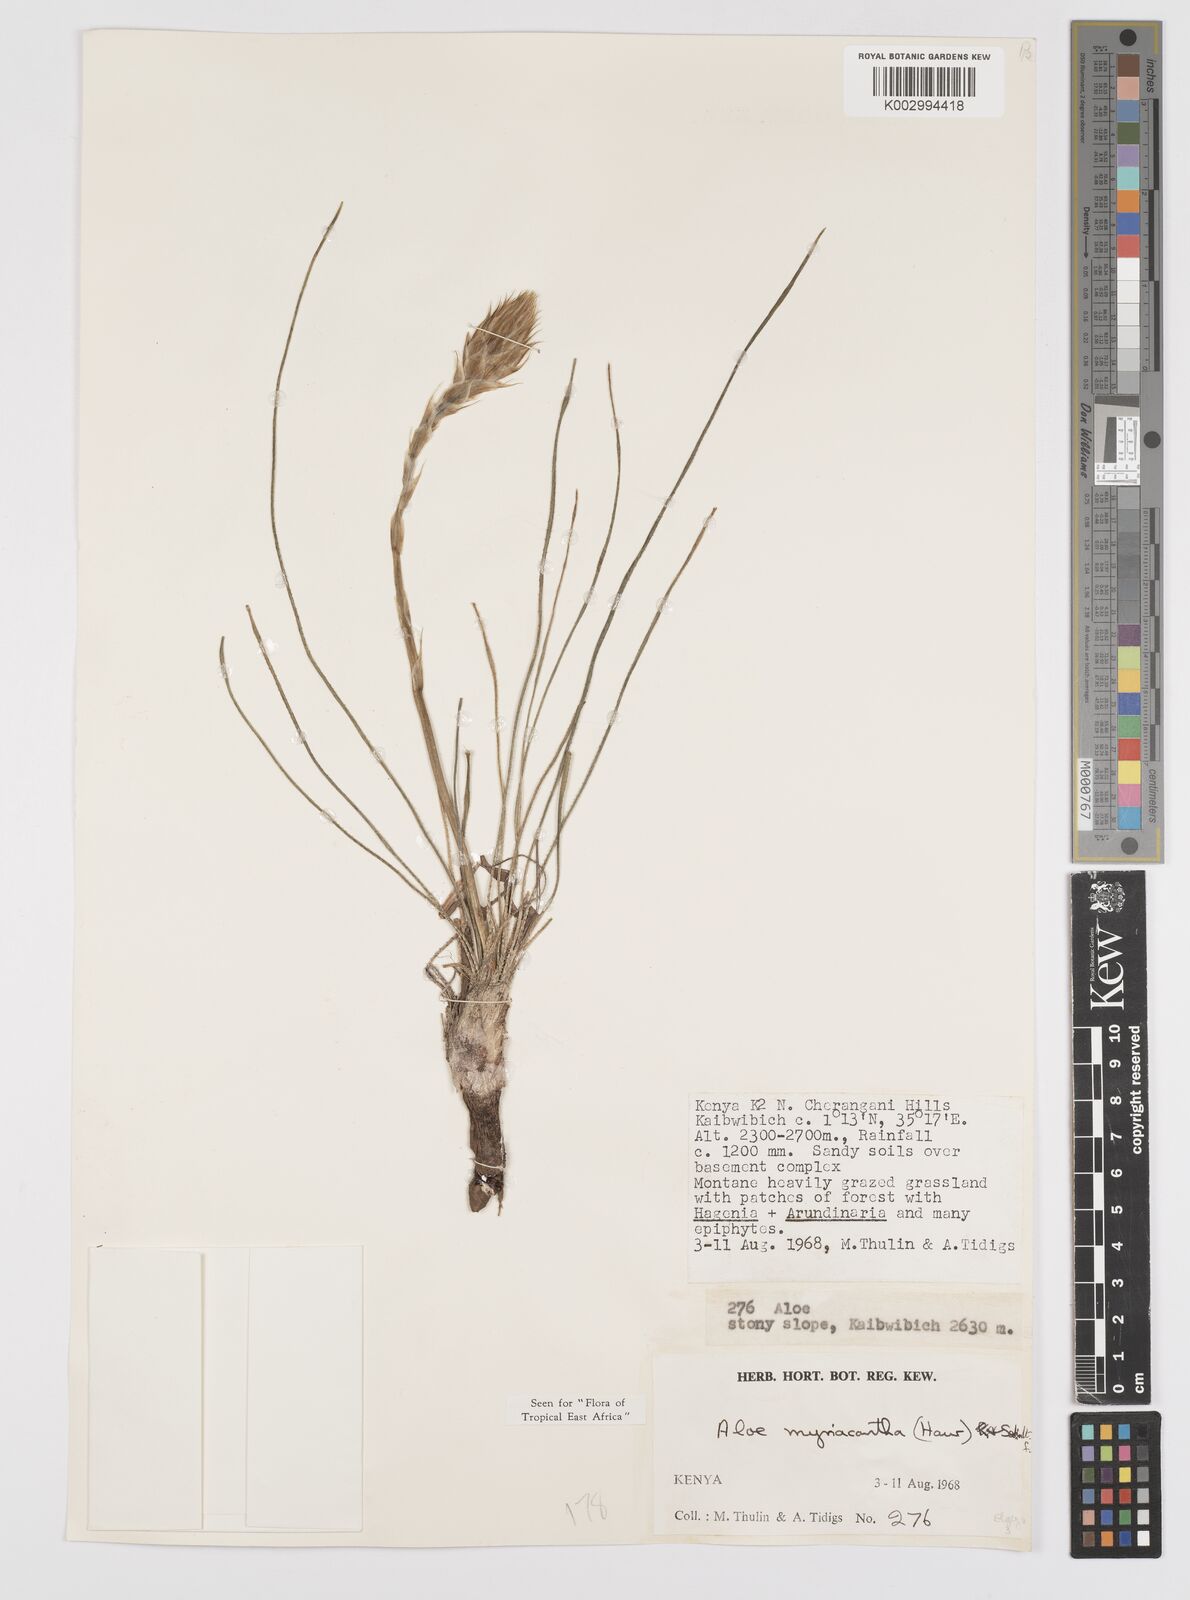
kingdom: Plantae
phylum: Tracheophyta
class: Liliopsida
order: Asparagales
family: Asphodelaceae
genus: Aloe
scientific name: Aloe myriacantha
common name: Grass aloe
